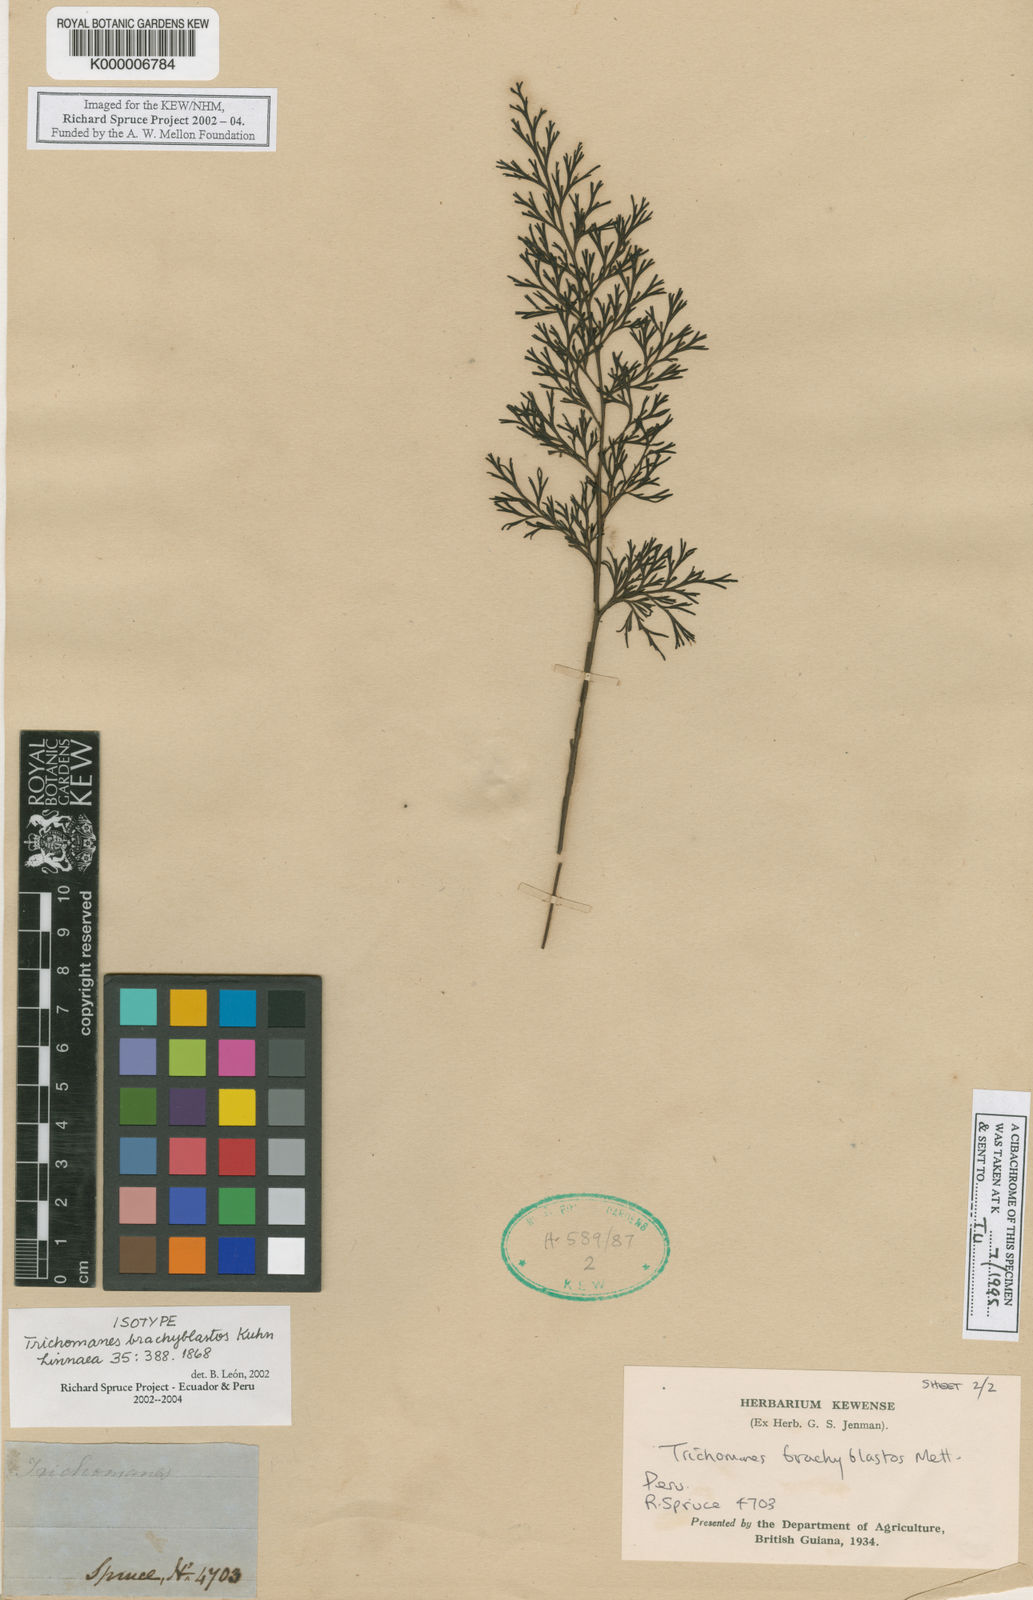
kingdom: Plantae
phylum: Tracheophyta
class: Polypodiopsida
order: Hymenophyllales
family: Hymenophyllaceae
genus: Trichomanes
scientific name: Trichomanes
